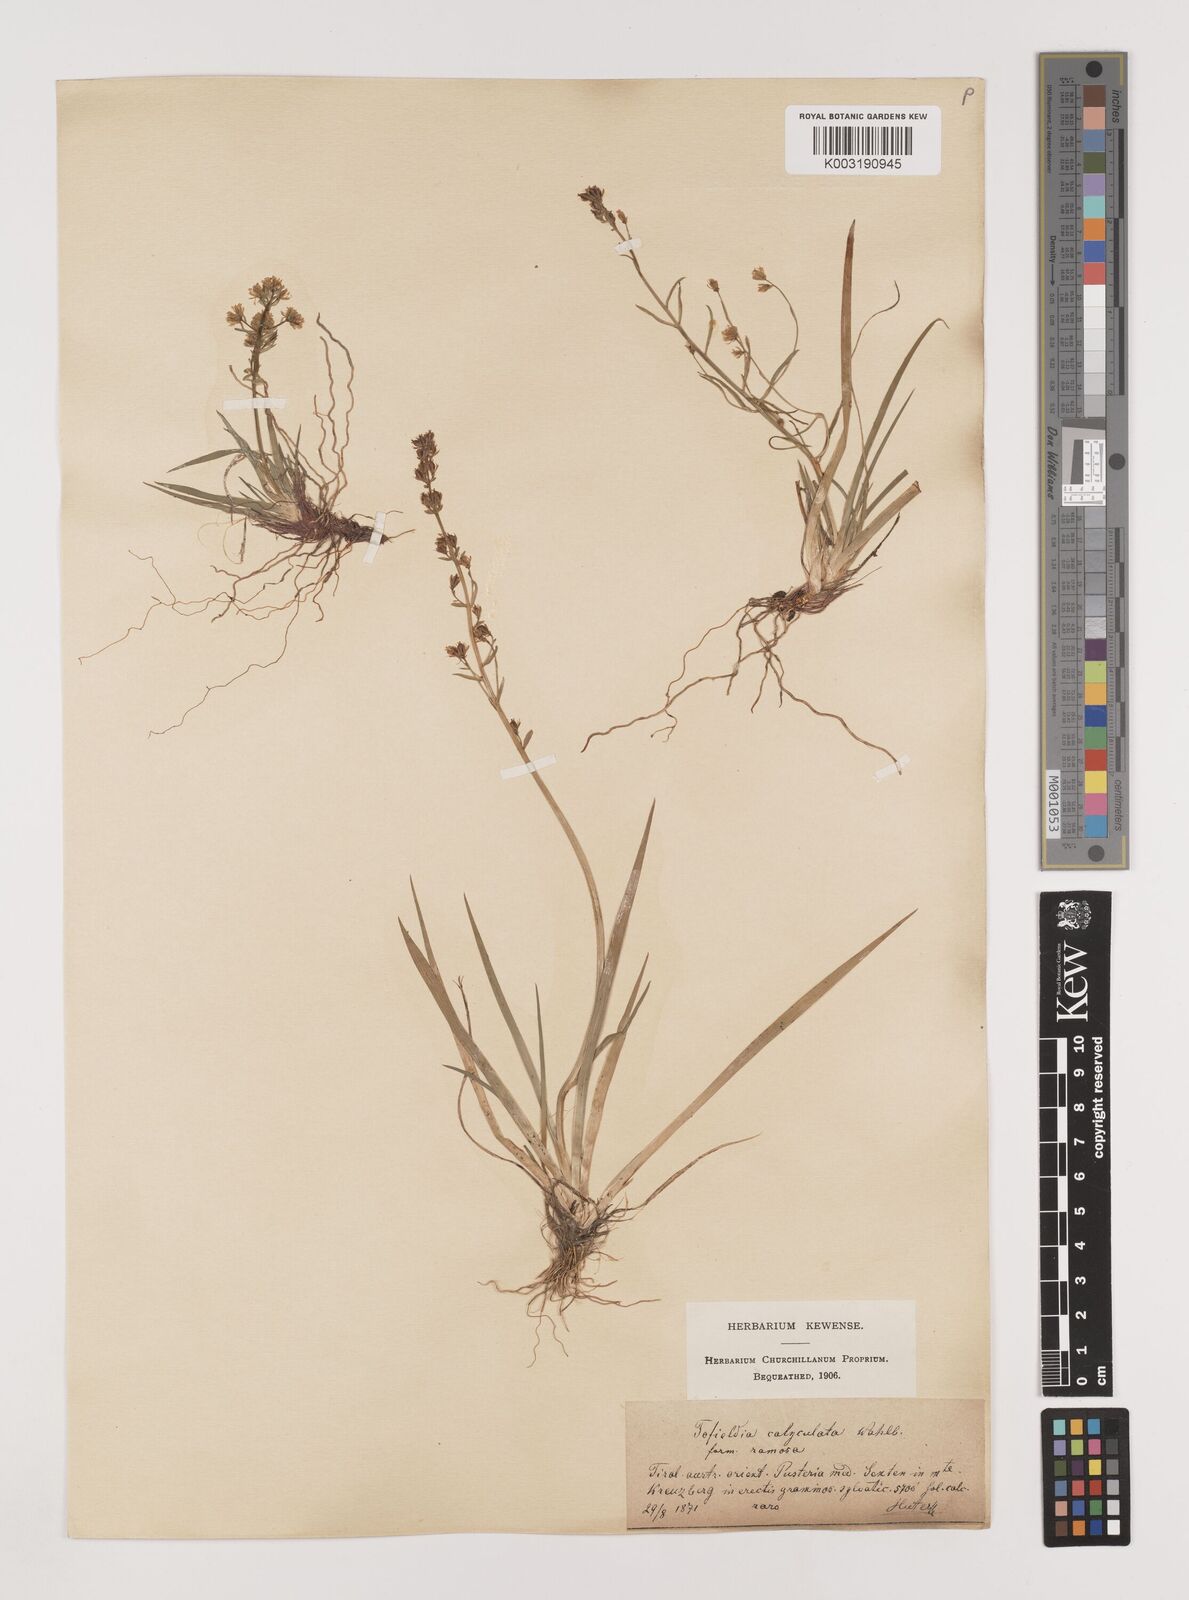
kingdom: Plantae
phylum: Tracheophyta
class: Liliopsida
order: Alismatales
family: Tofieldiaceae
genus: Tofieldia
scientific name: Tofieldia calyculata
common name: German-asphodel
